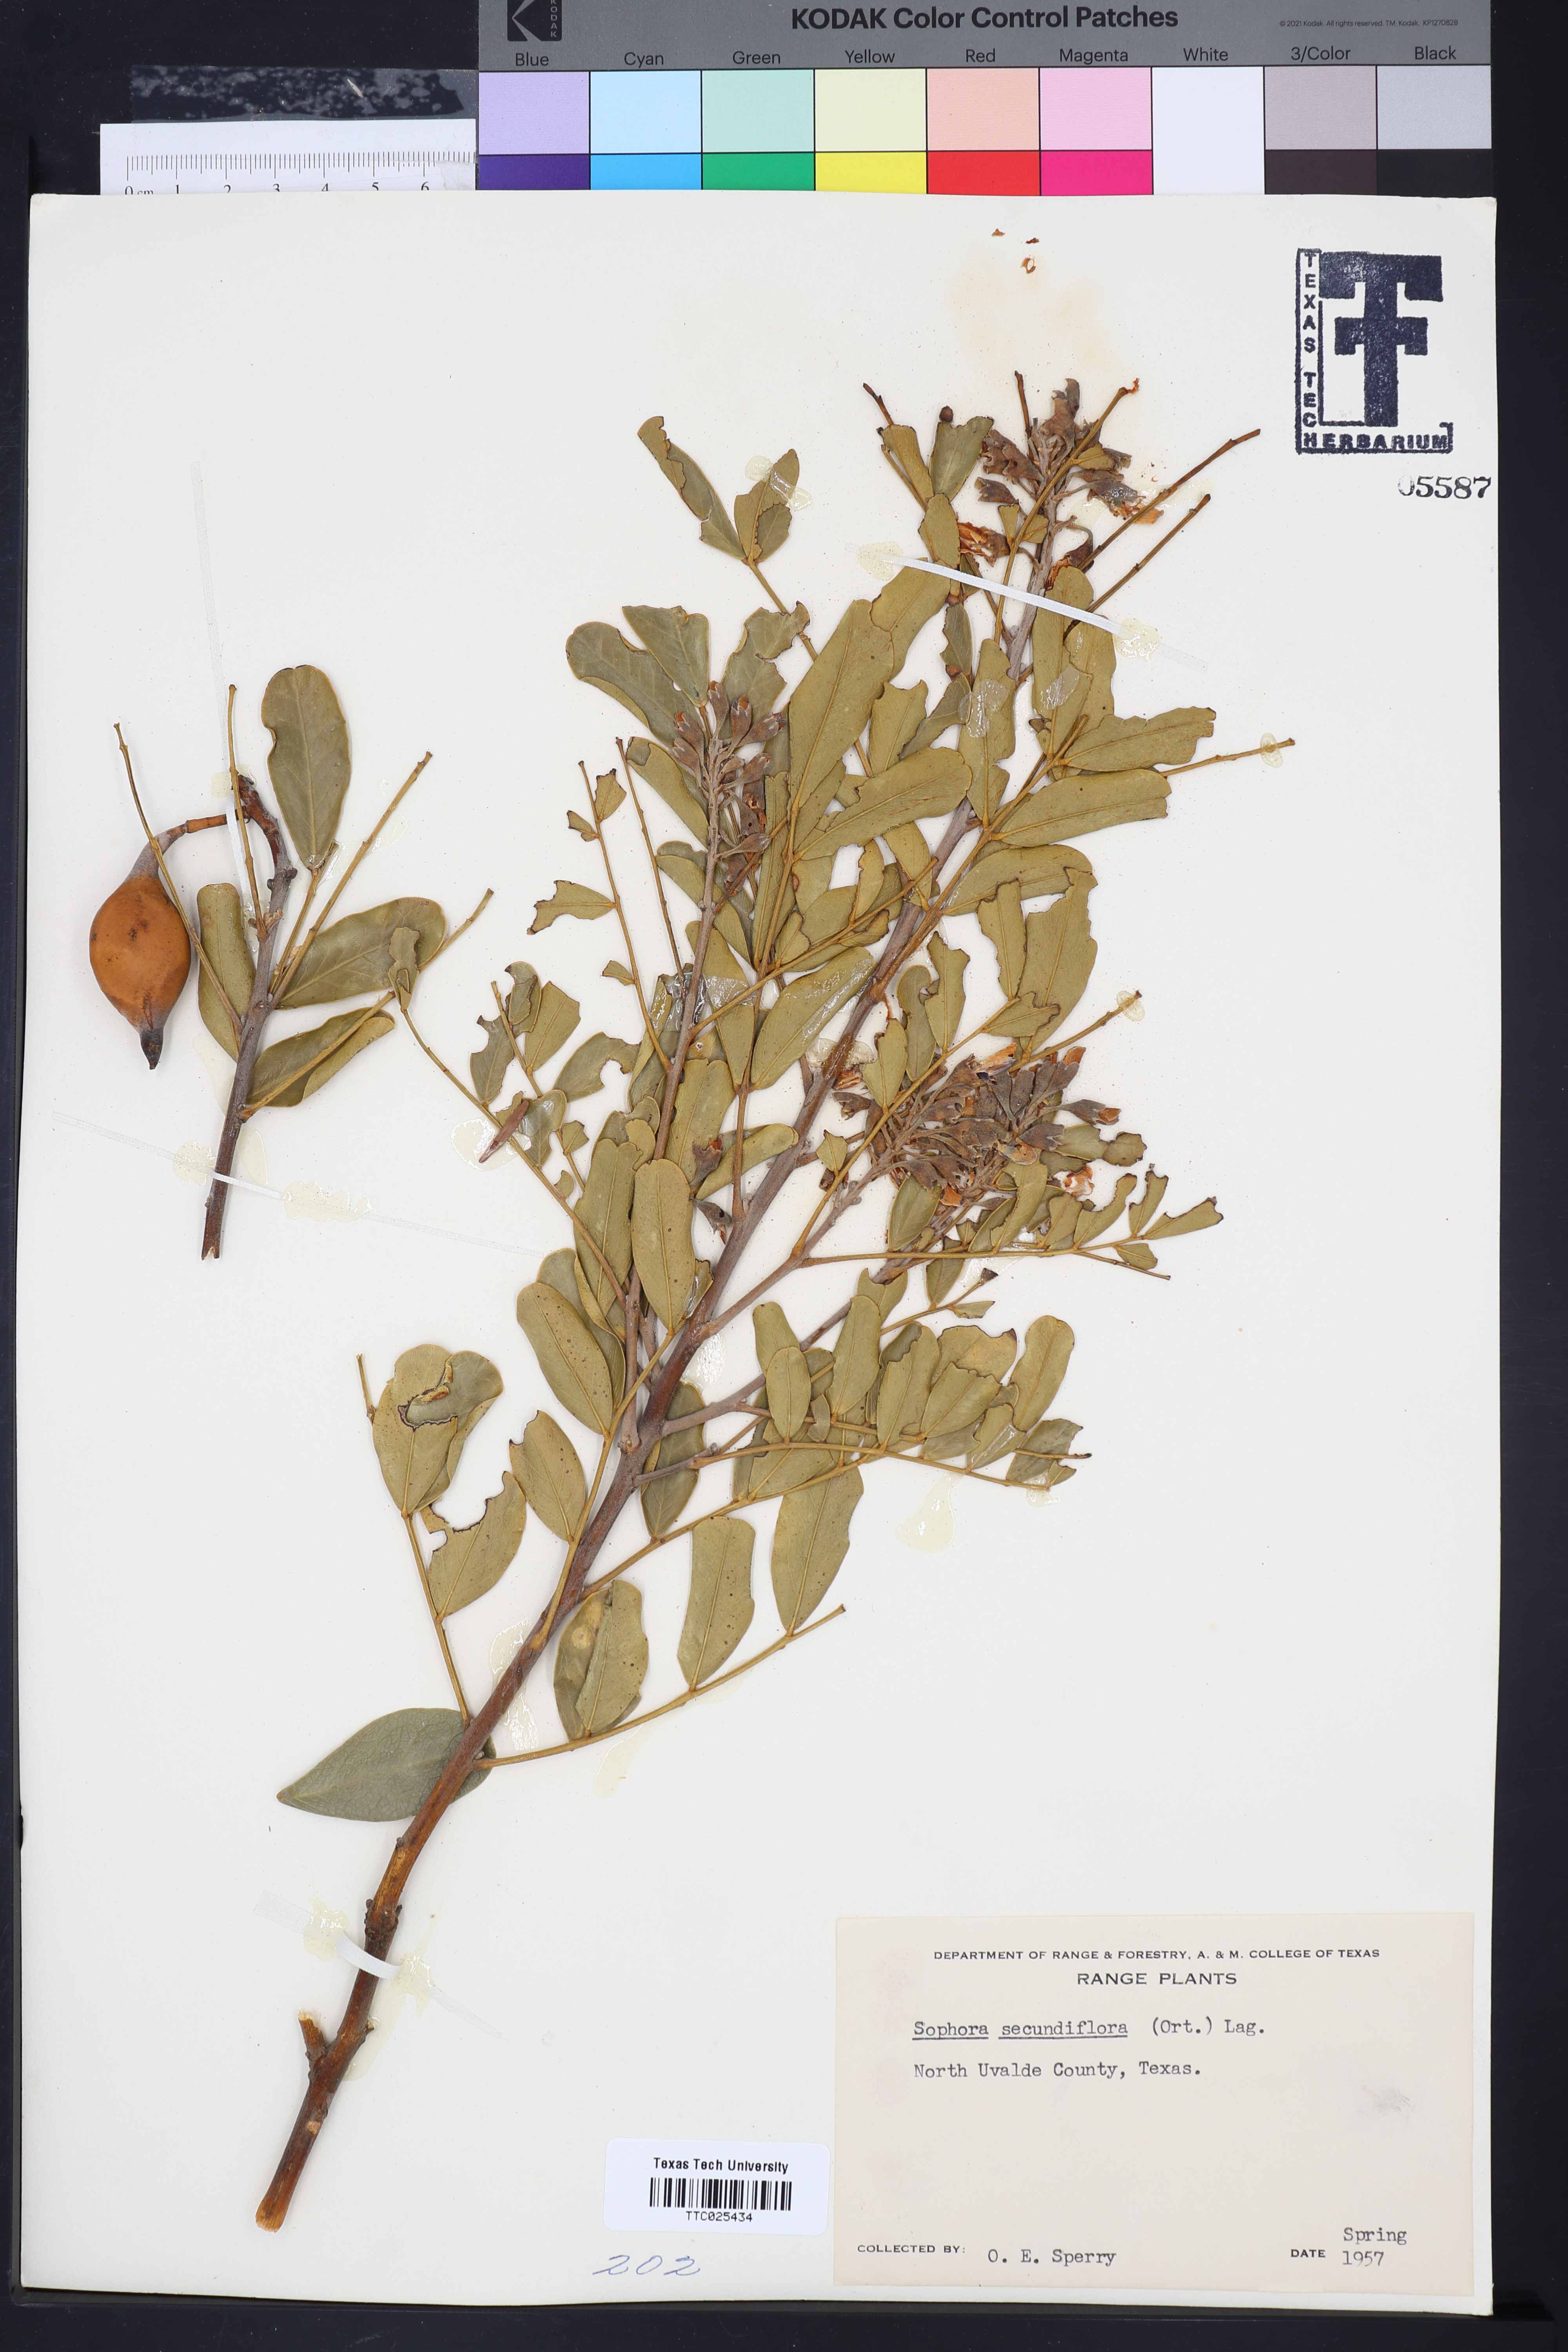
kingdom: Plantae
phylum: Tracheophyta
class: Magnoliopsida
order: Fabales
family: Fabaceae
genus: Dermatophyllum
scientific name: Dermatophyllum secundiflorum
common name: Texas-mountain-laurel
